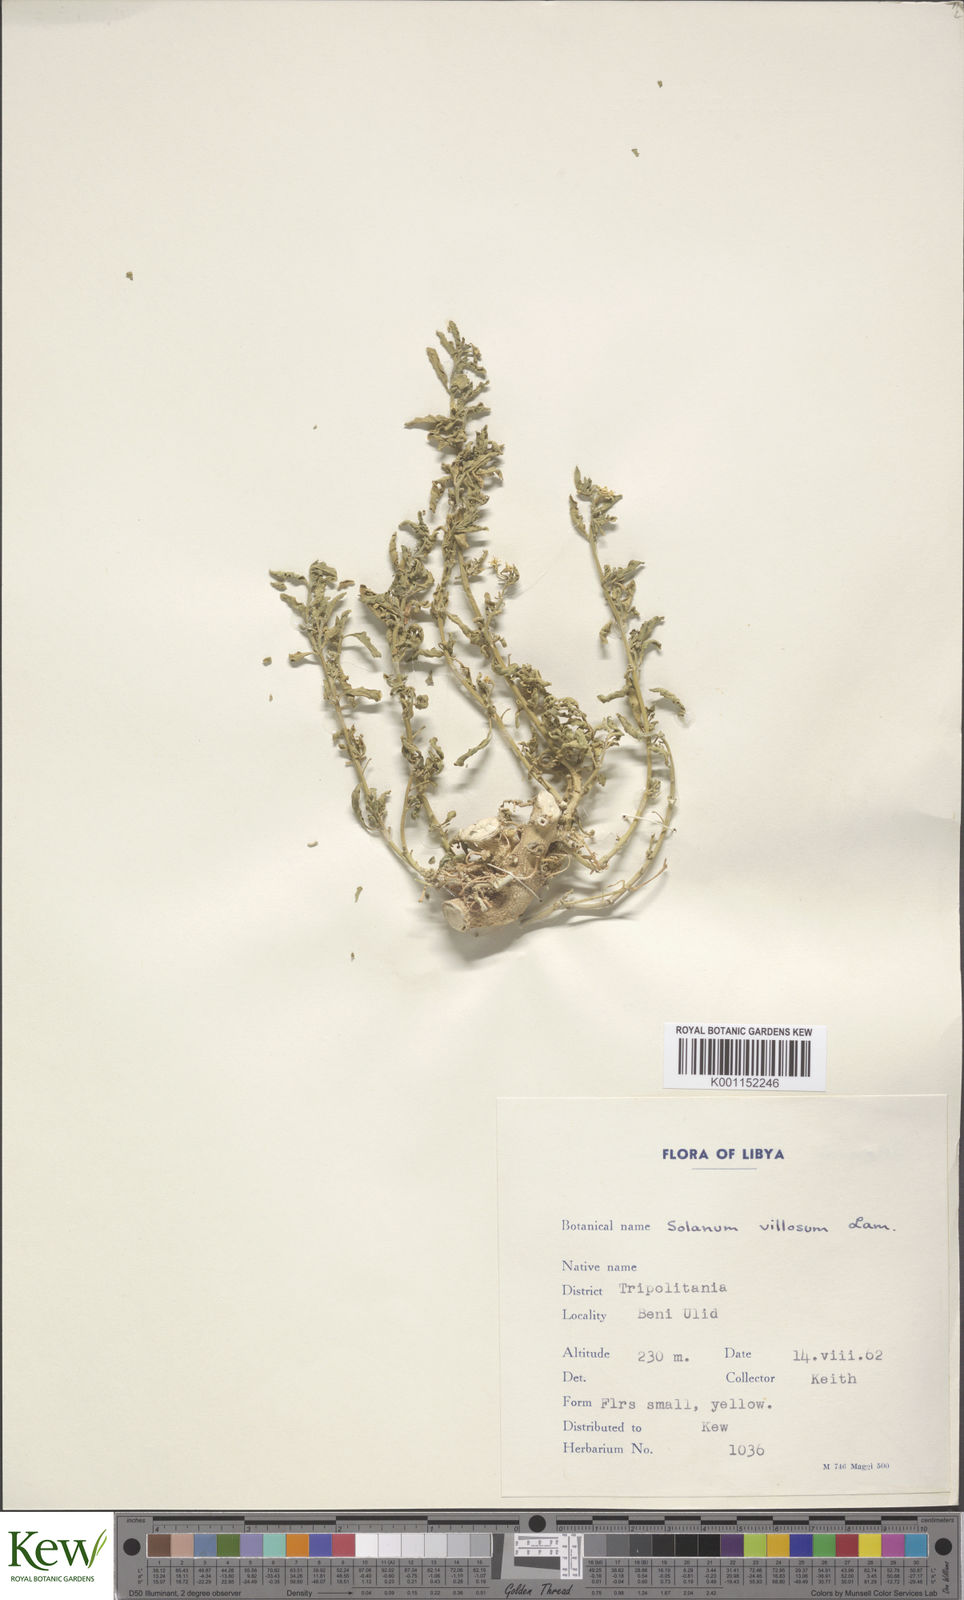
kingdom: Plantae
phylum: Tracheophyta
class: Magnoliopsida
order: Solanales
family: Solanaceae
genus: Solanum
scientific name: Solanum villosum
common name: Red nightshade
